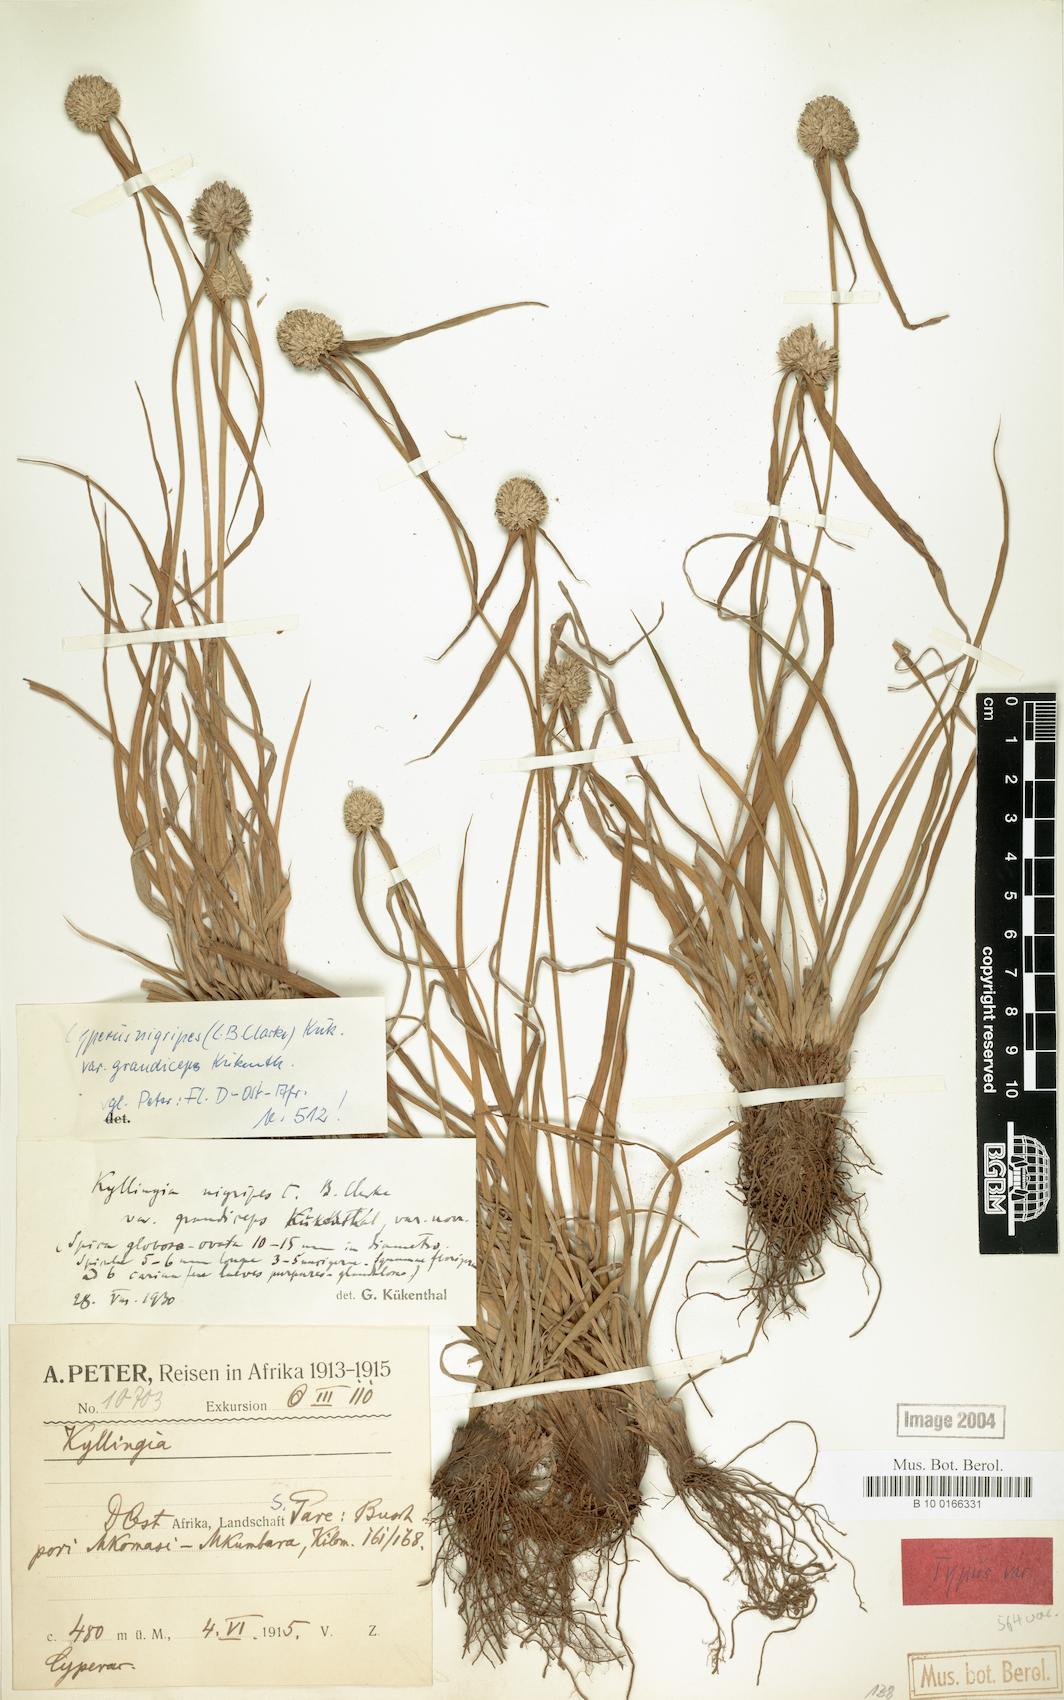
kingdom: Plantae
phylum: Tracheophyta
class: Liliopsida
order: Poales
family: Cyperaceae
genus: Cyperus
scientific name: Cyperus alatus
